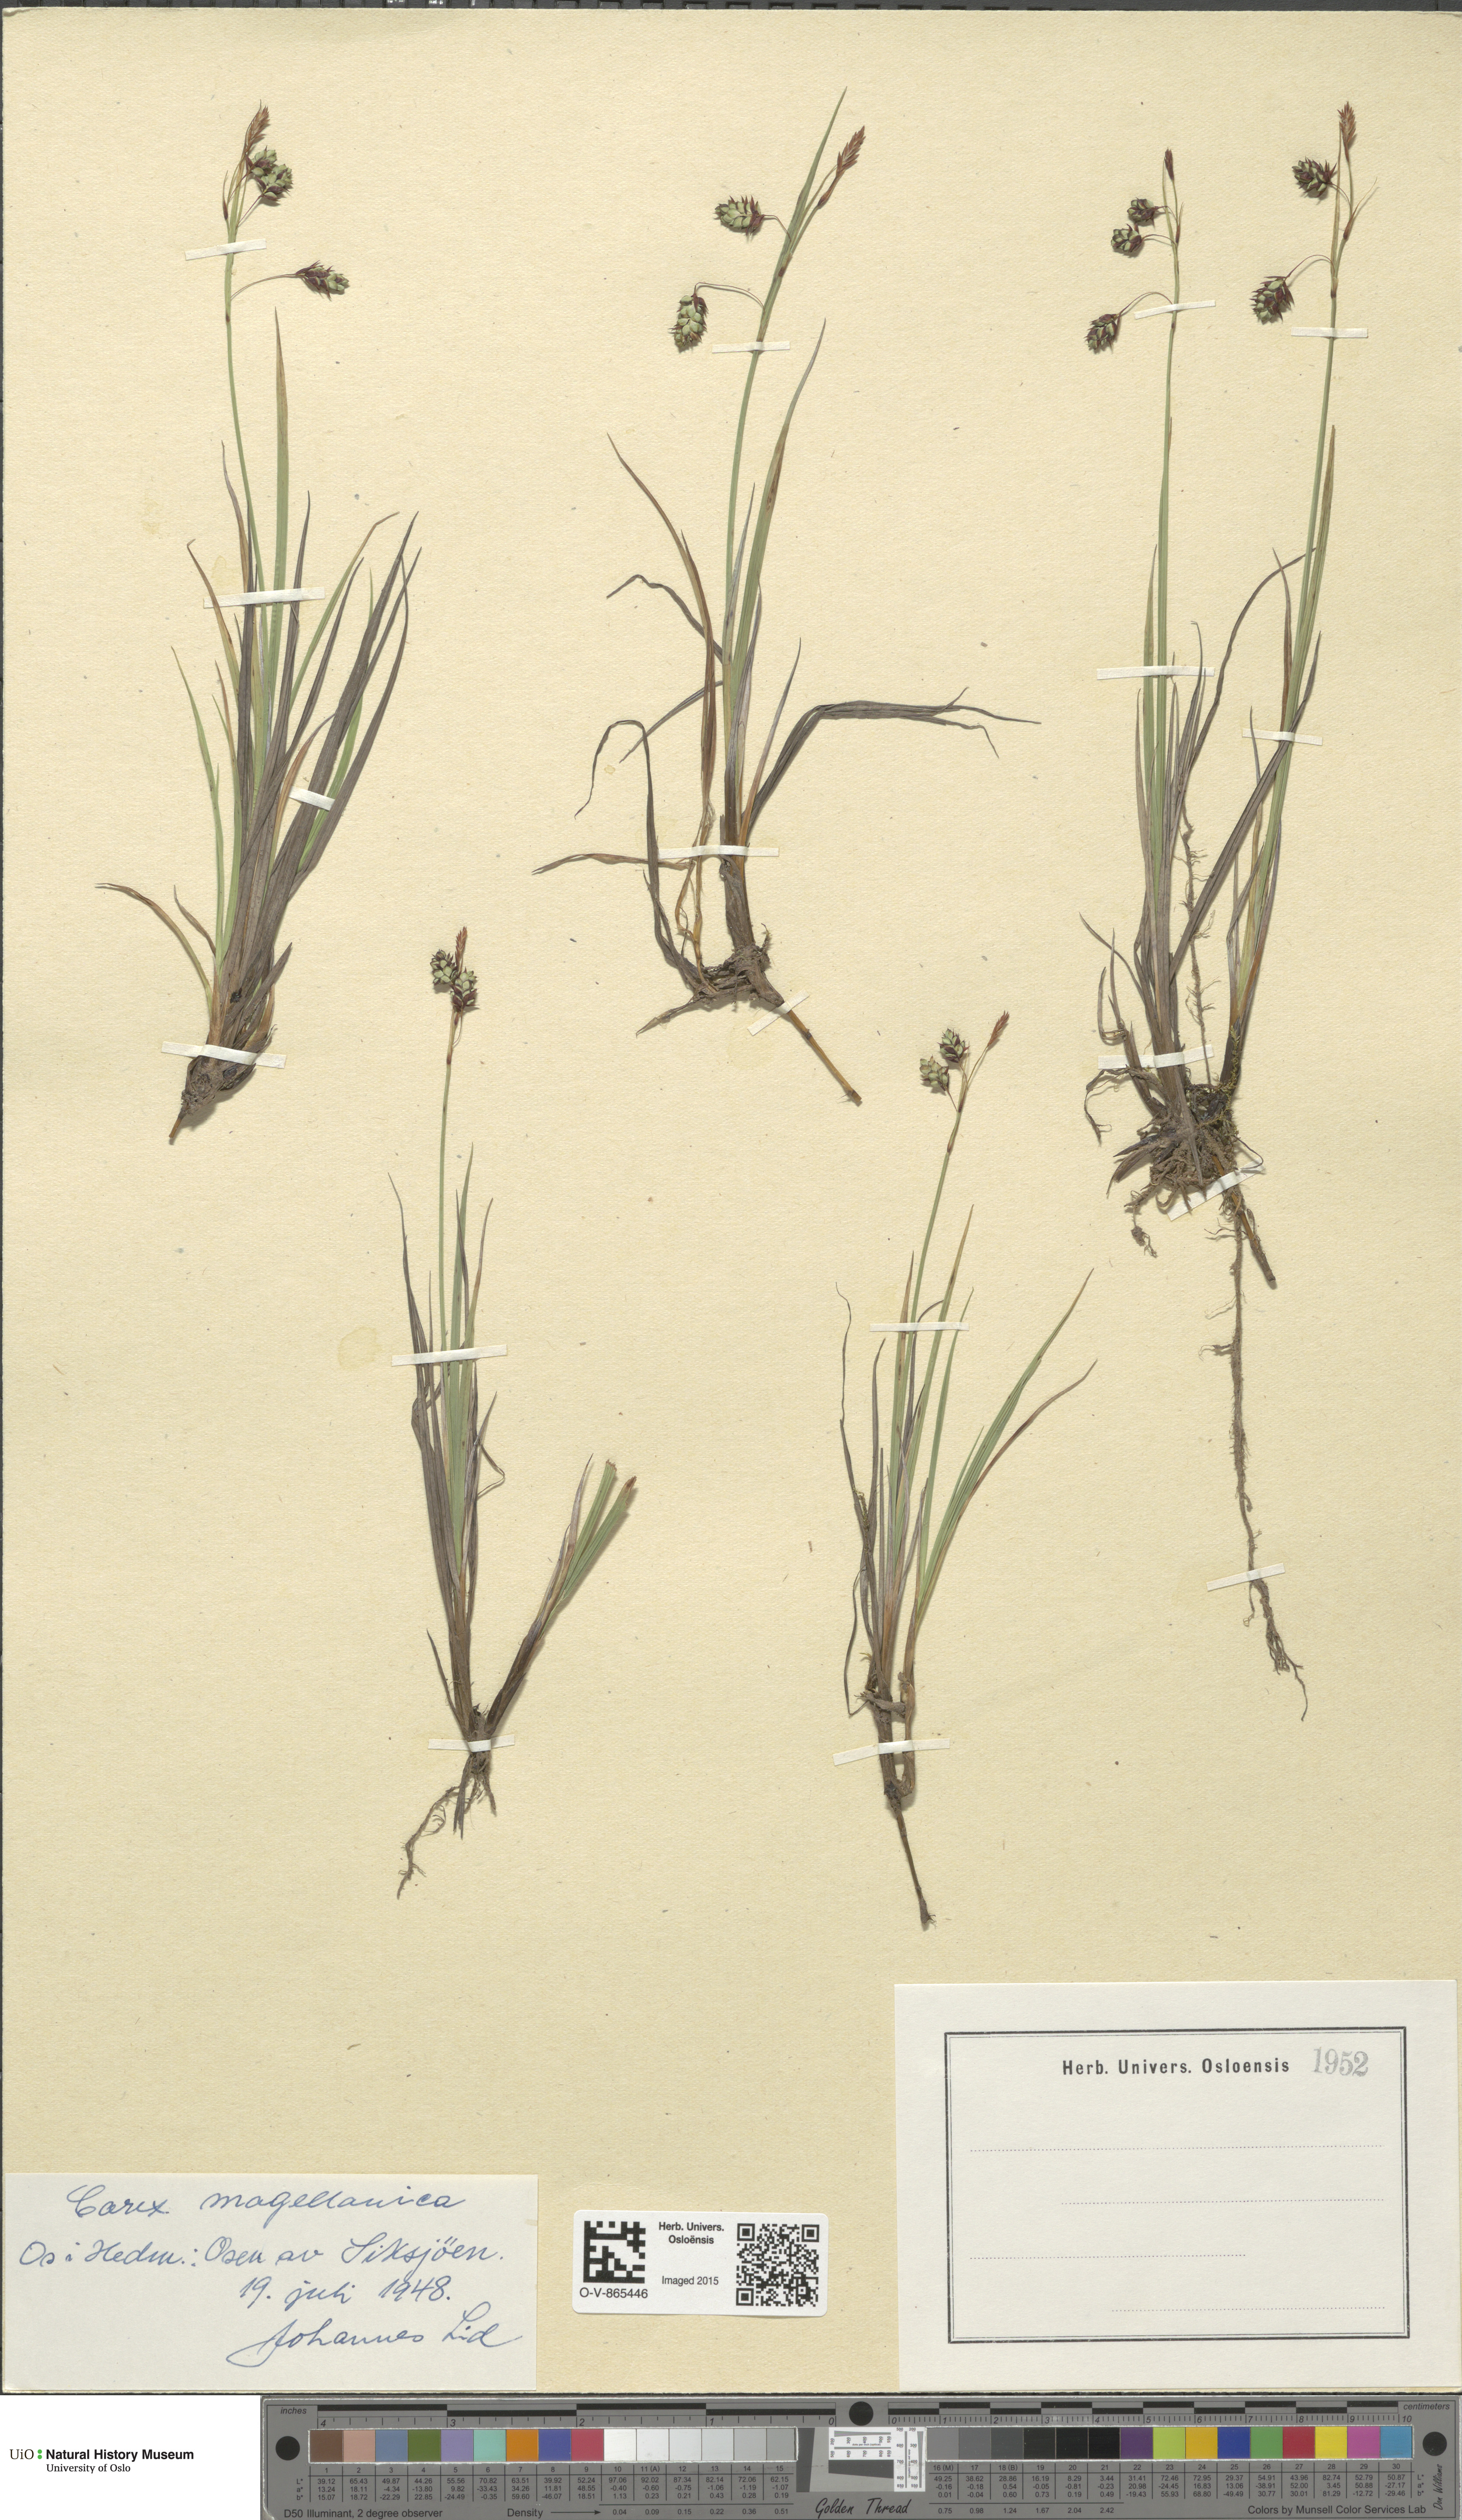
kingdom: Plantae
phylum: Tracheophyta
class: Liliopsida
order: Poales
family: Cyperaceae
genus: Carex
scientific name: Carex magellanica
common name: Bog sedge
